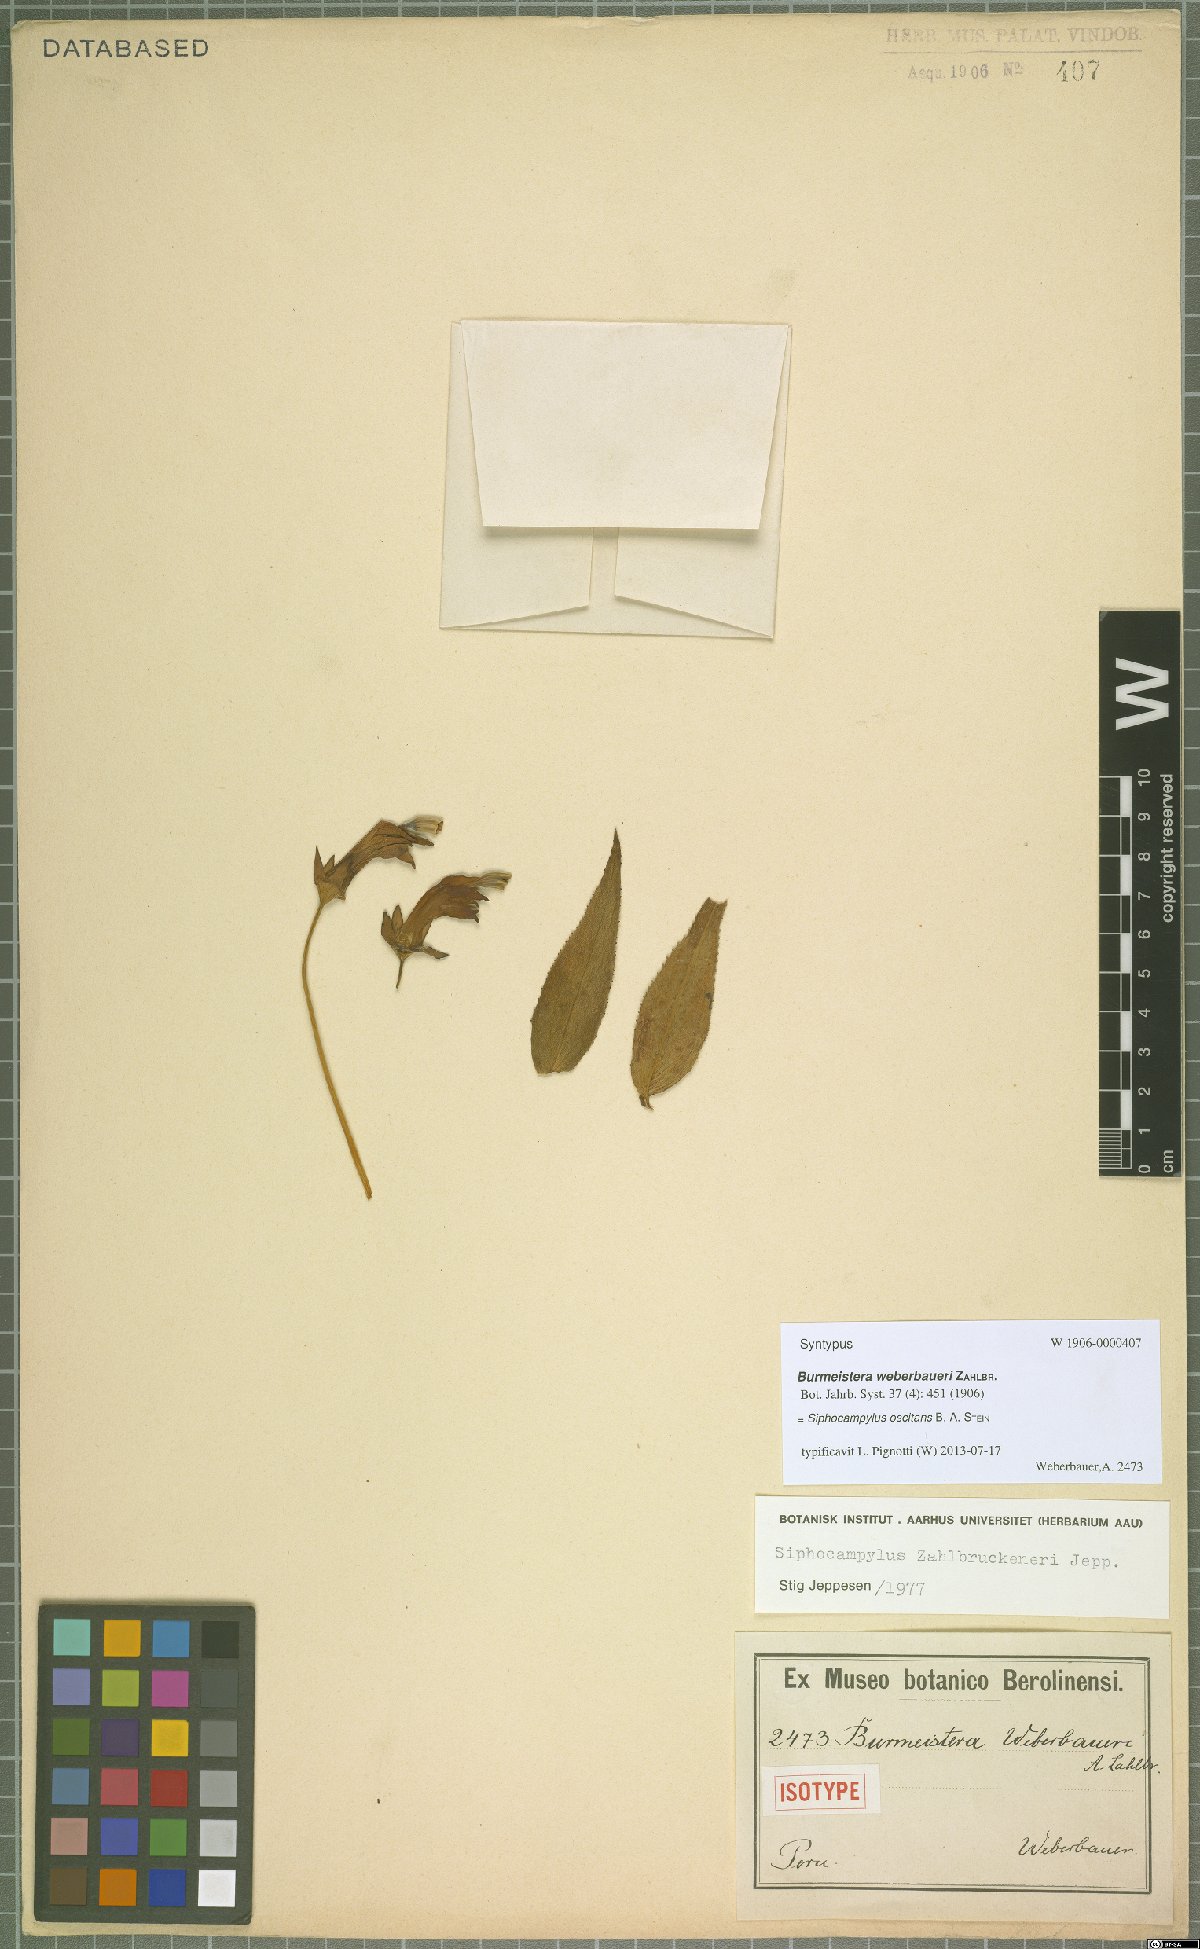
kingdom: Plantae
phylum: Tracheophyta
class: Magnoliopsida
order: Asterales
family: Campanulaceae
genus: Siphocampylus
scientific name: Siphocampylus oscitans
